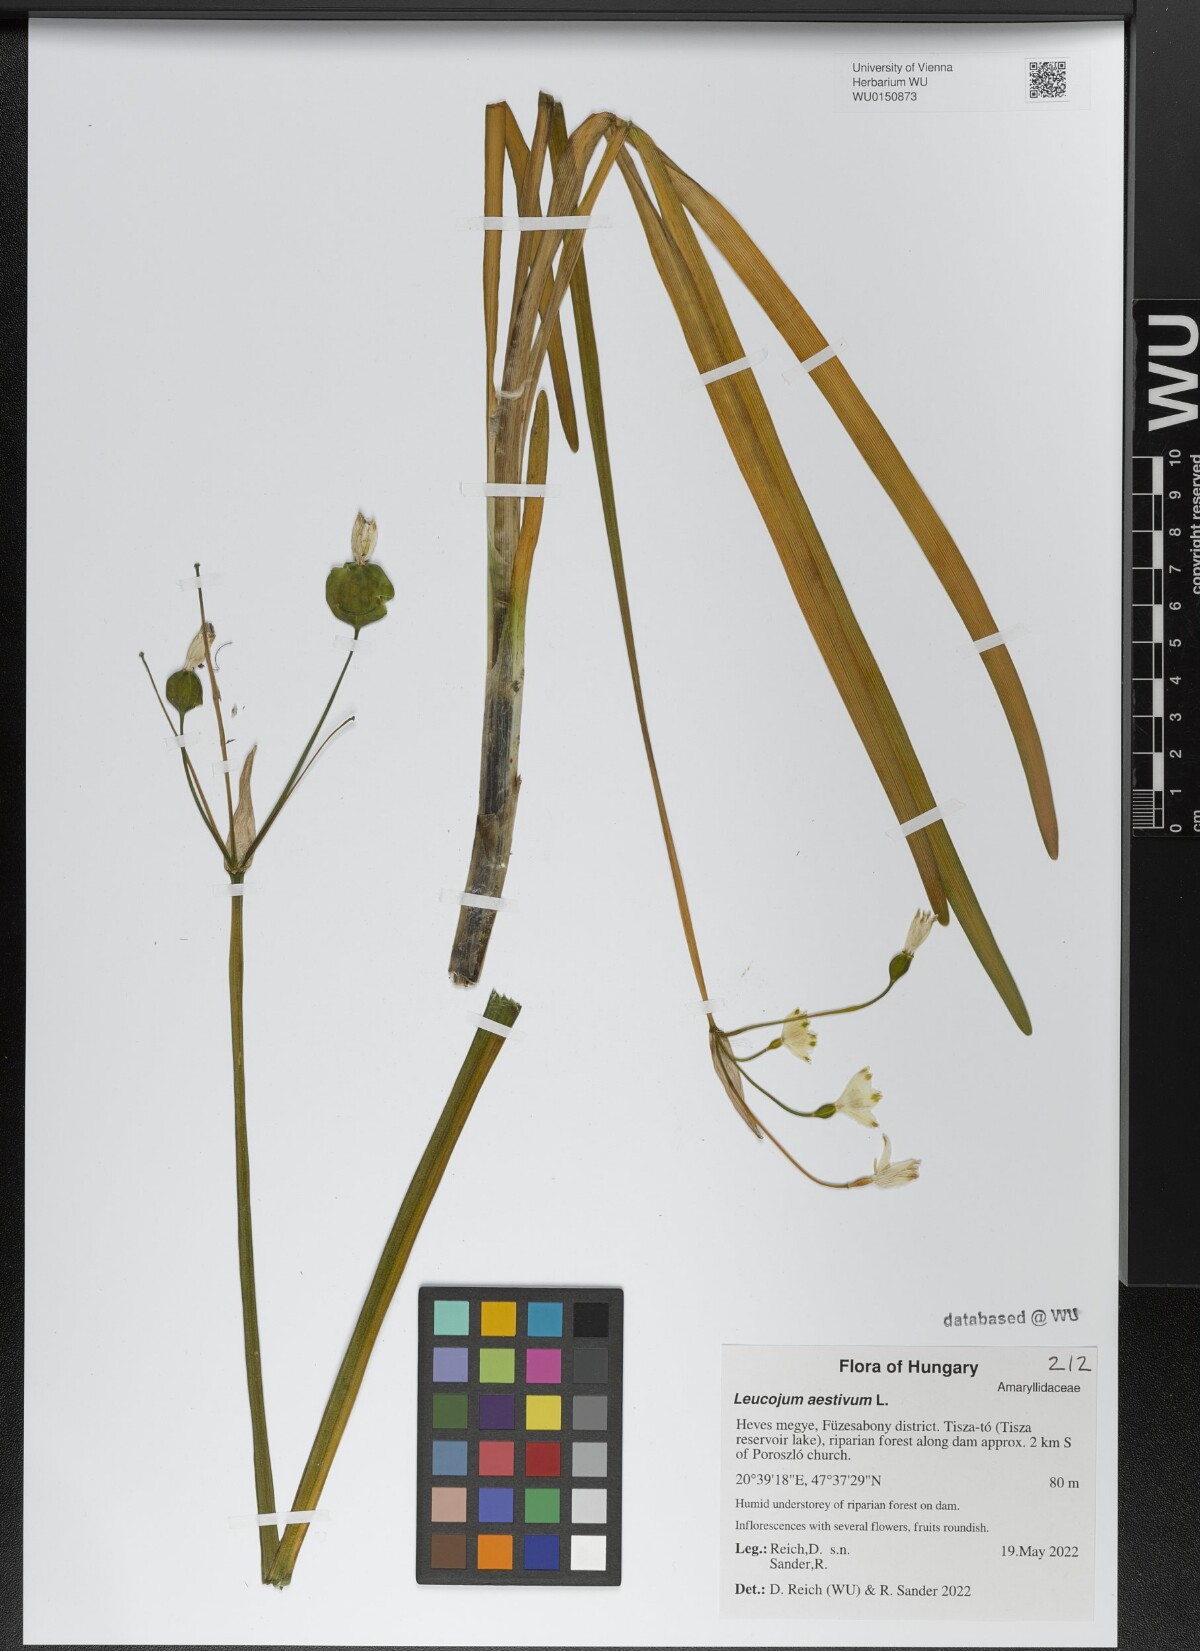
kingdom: Plantae
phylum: Tracheophyta
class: Liliopsida
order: Asparagales
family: Amaryllidaceae
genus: Leucojum
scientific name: Leucojum aestivum
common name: Summer snowflake
